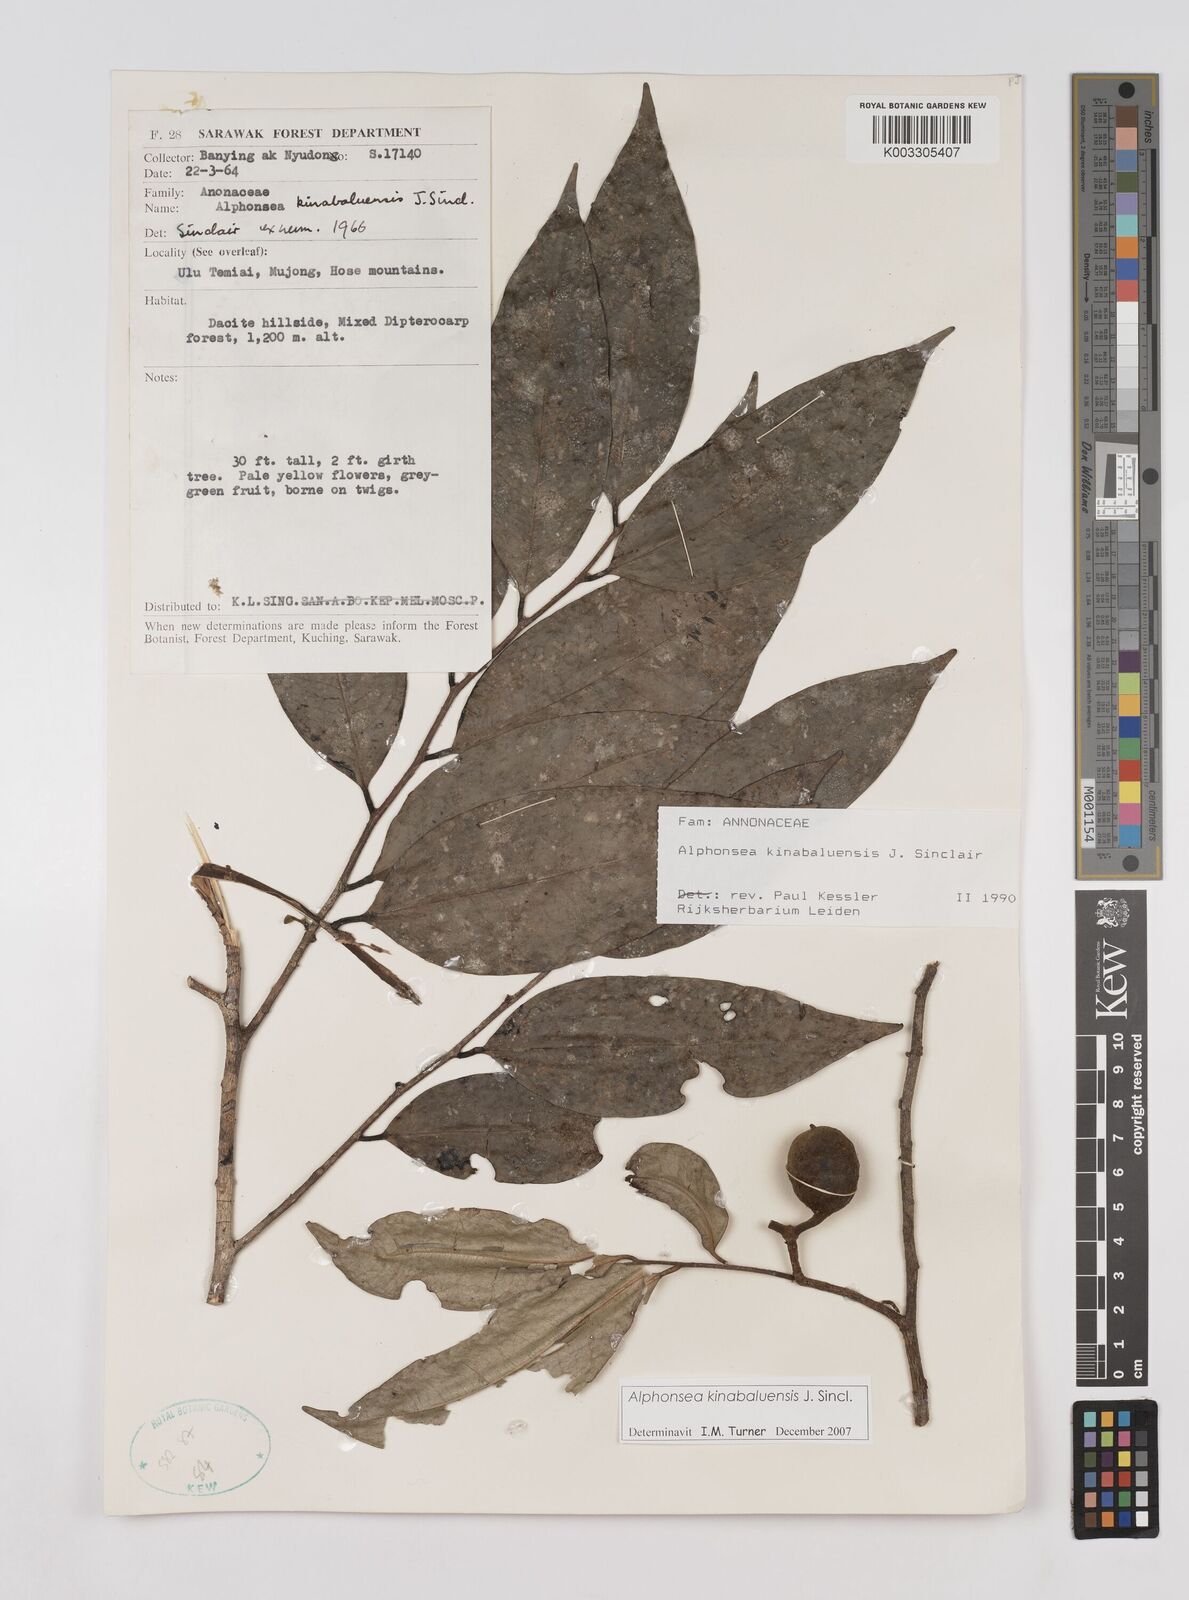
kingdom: Plantae
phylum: Tracheophyta
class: Magnoliopsida
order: Magnoliales
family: Annonaceae
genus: Alphonsea
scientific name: Alphonsea kinabaluensis
